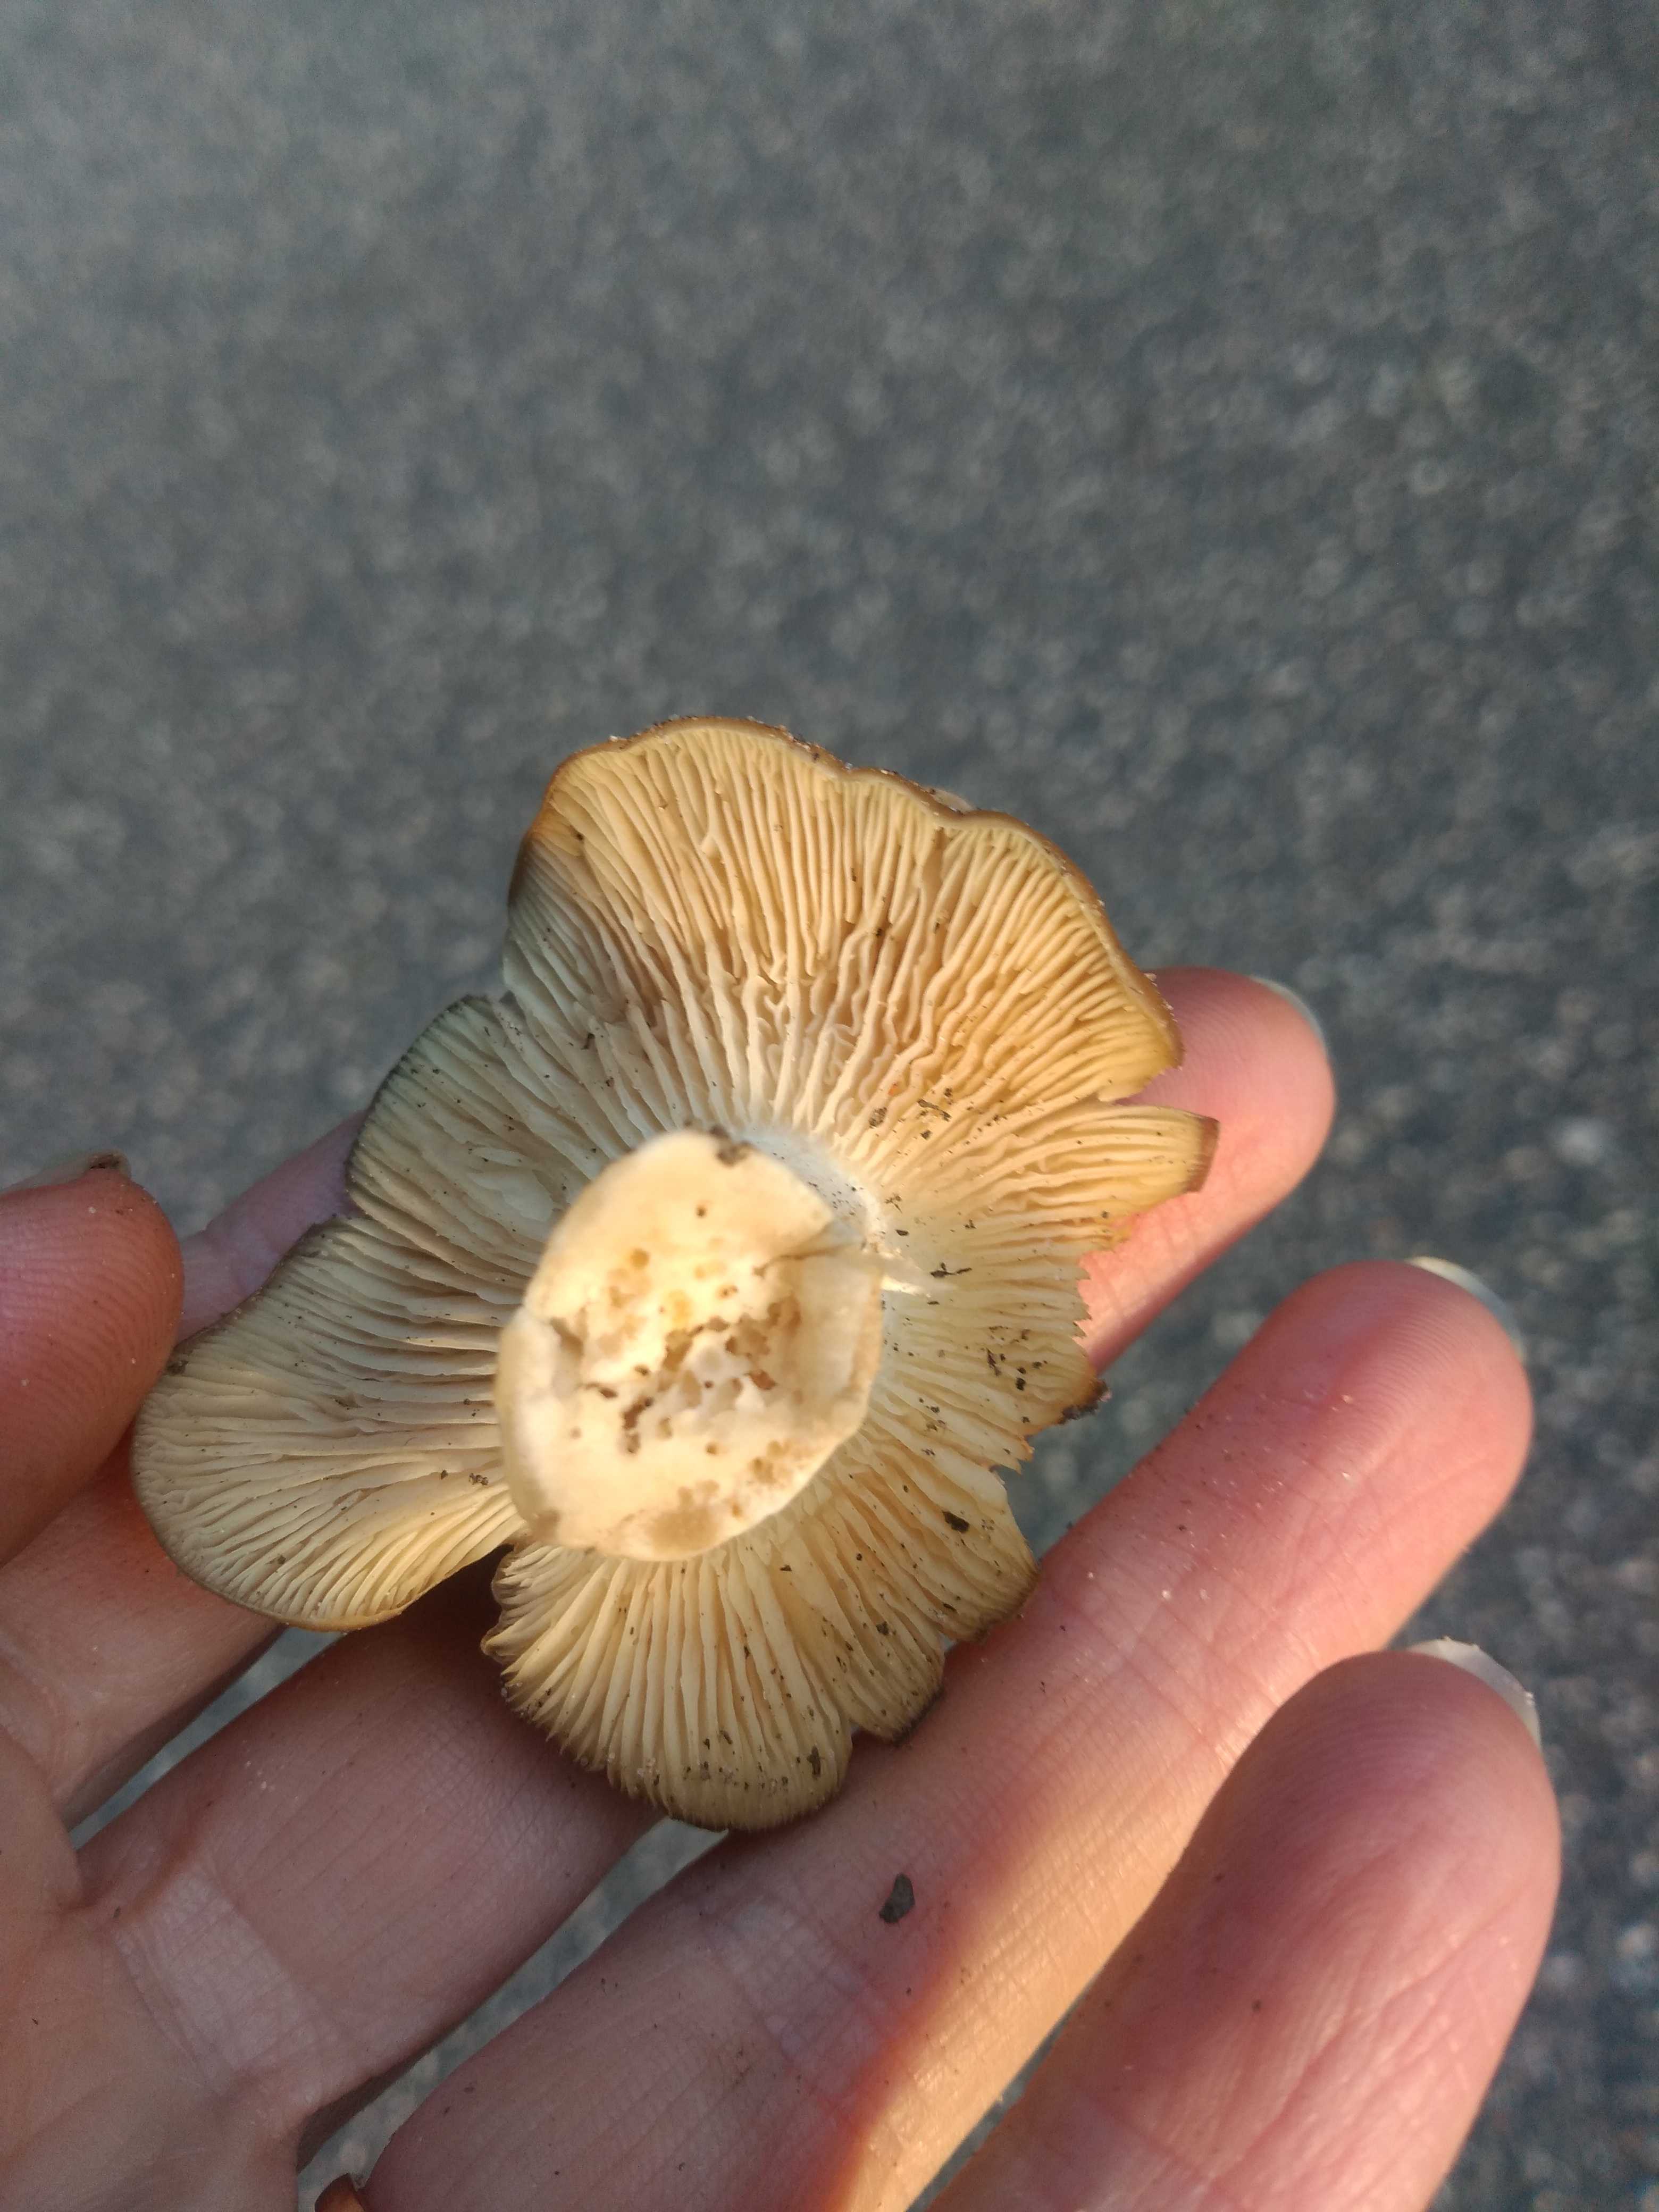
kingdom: Fungi
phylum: Basidiomycota
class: Agaricomycetes
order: Agaricales
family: Lyophyllaceae
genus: Lyophyllum
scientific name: Lyophyllum
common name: gråblad
